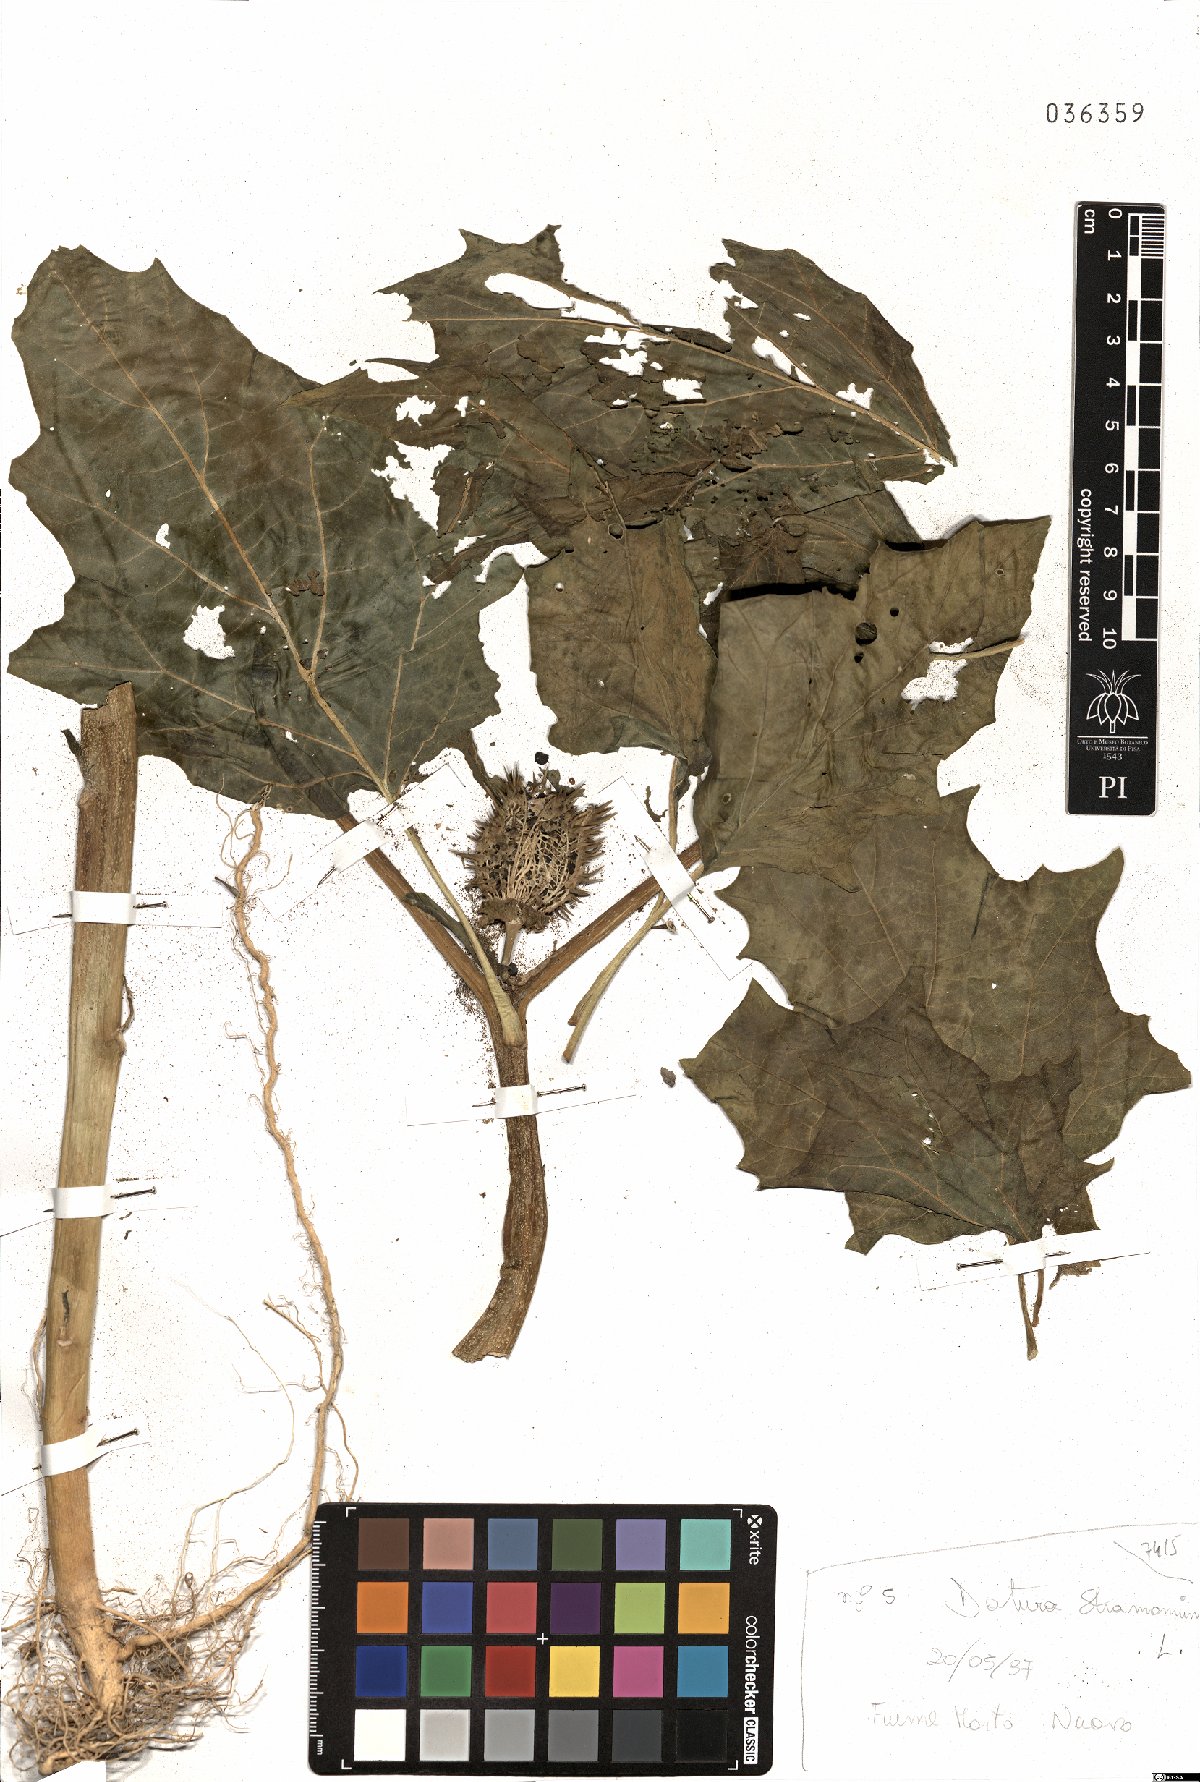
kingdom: Plantae
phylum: Tracheophyta
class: Magnoliopsida
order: Solanales
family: Solanaceae
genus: Datura
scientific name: Datura stramonium
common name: Thorn-apple
